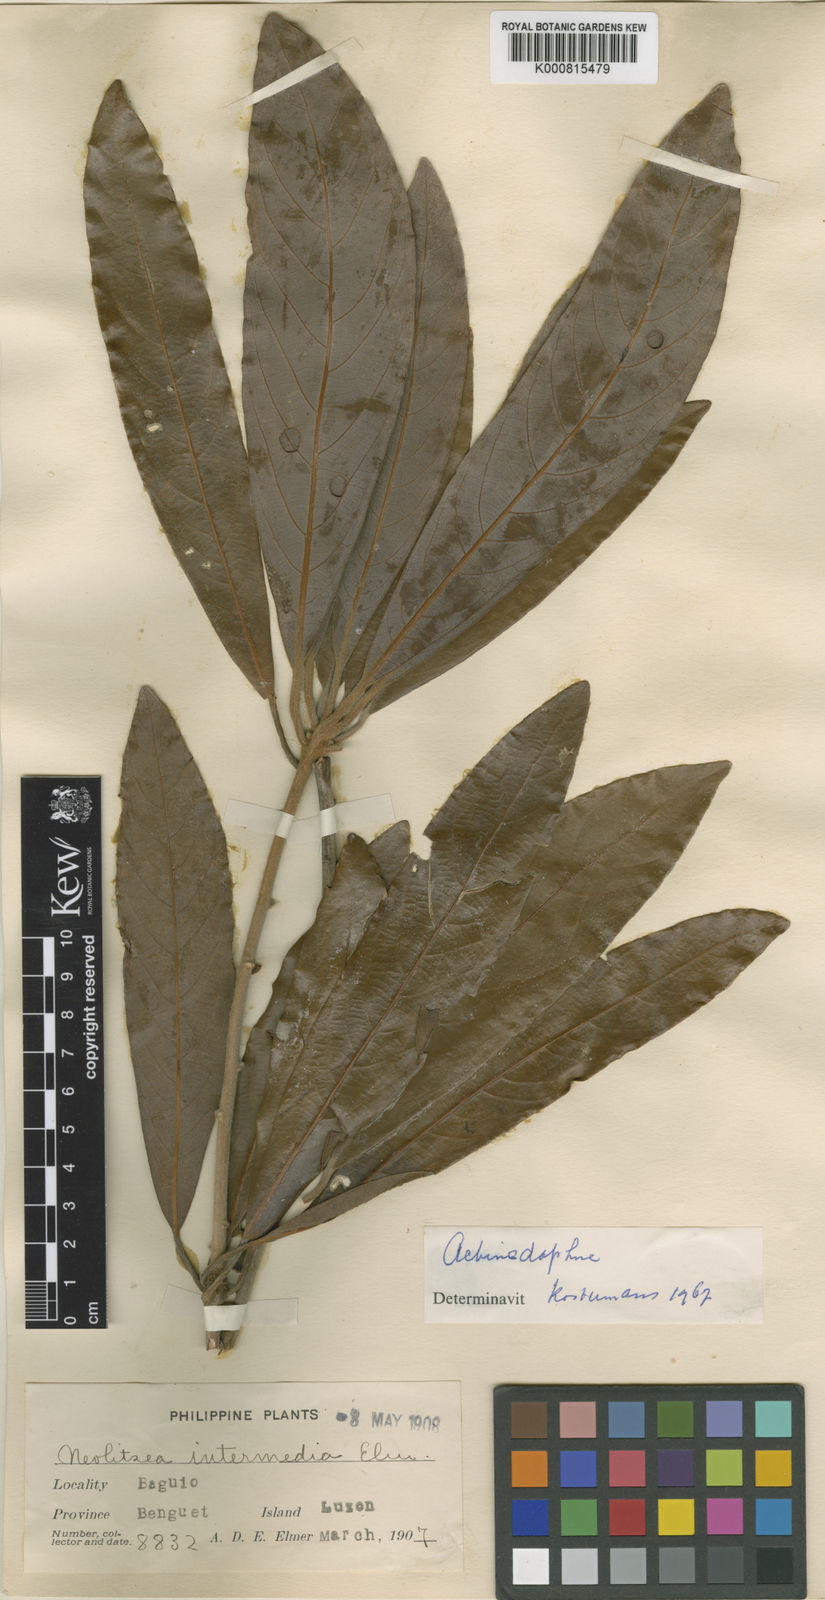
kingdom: Plantae
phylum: Tracheophyta
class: Magnoliopsida
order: Laurales
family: Lauraceae
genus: Actinodaphne
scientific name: Actinodaphne multiflora
